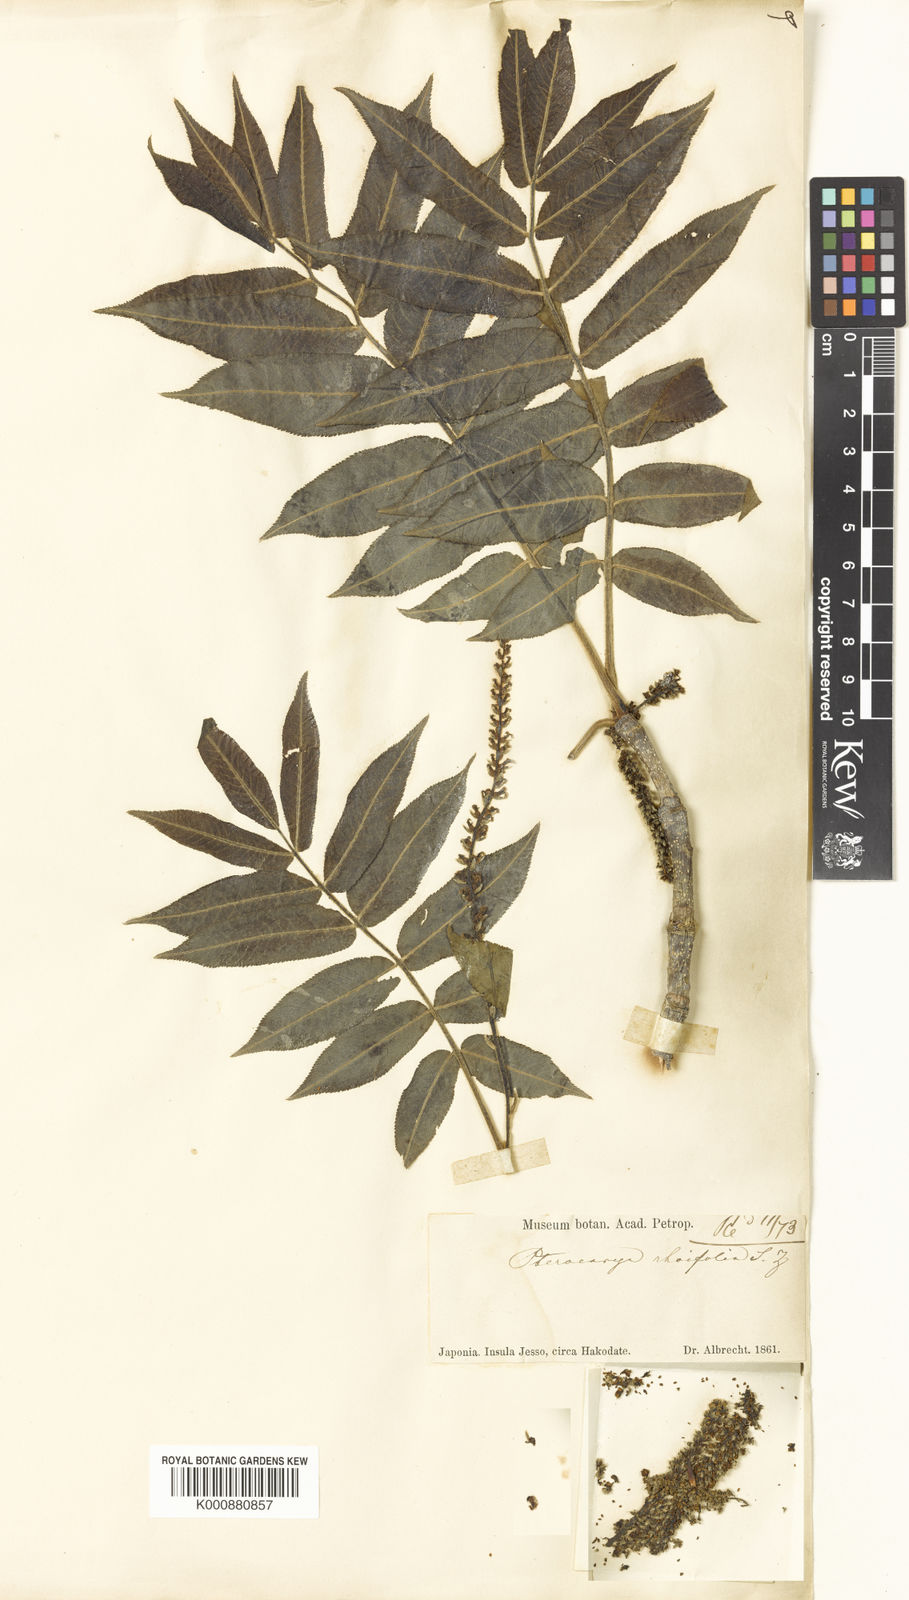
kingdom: Plantae
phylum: Tracheophyta
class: Magnoliopsida
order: Fagales
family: Juglandaceae
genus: Pterocarya
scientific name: Pterocarya rhoifolia
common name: Japanese wingnut
